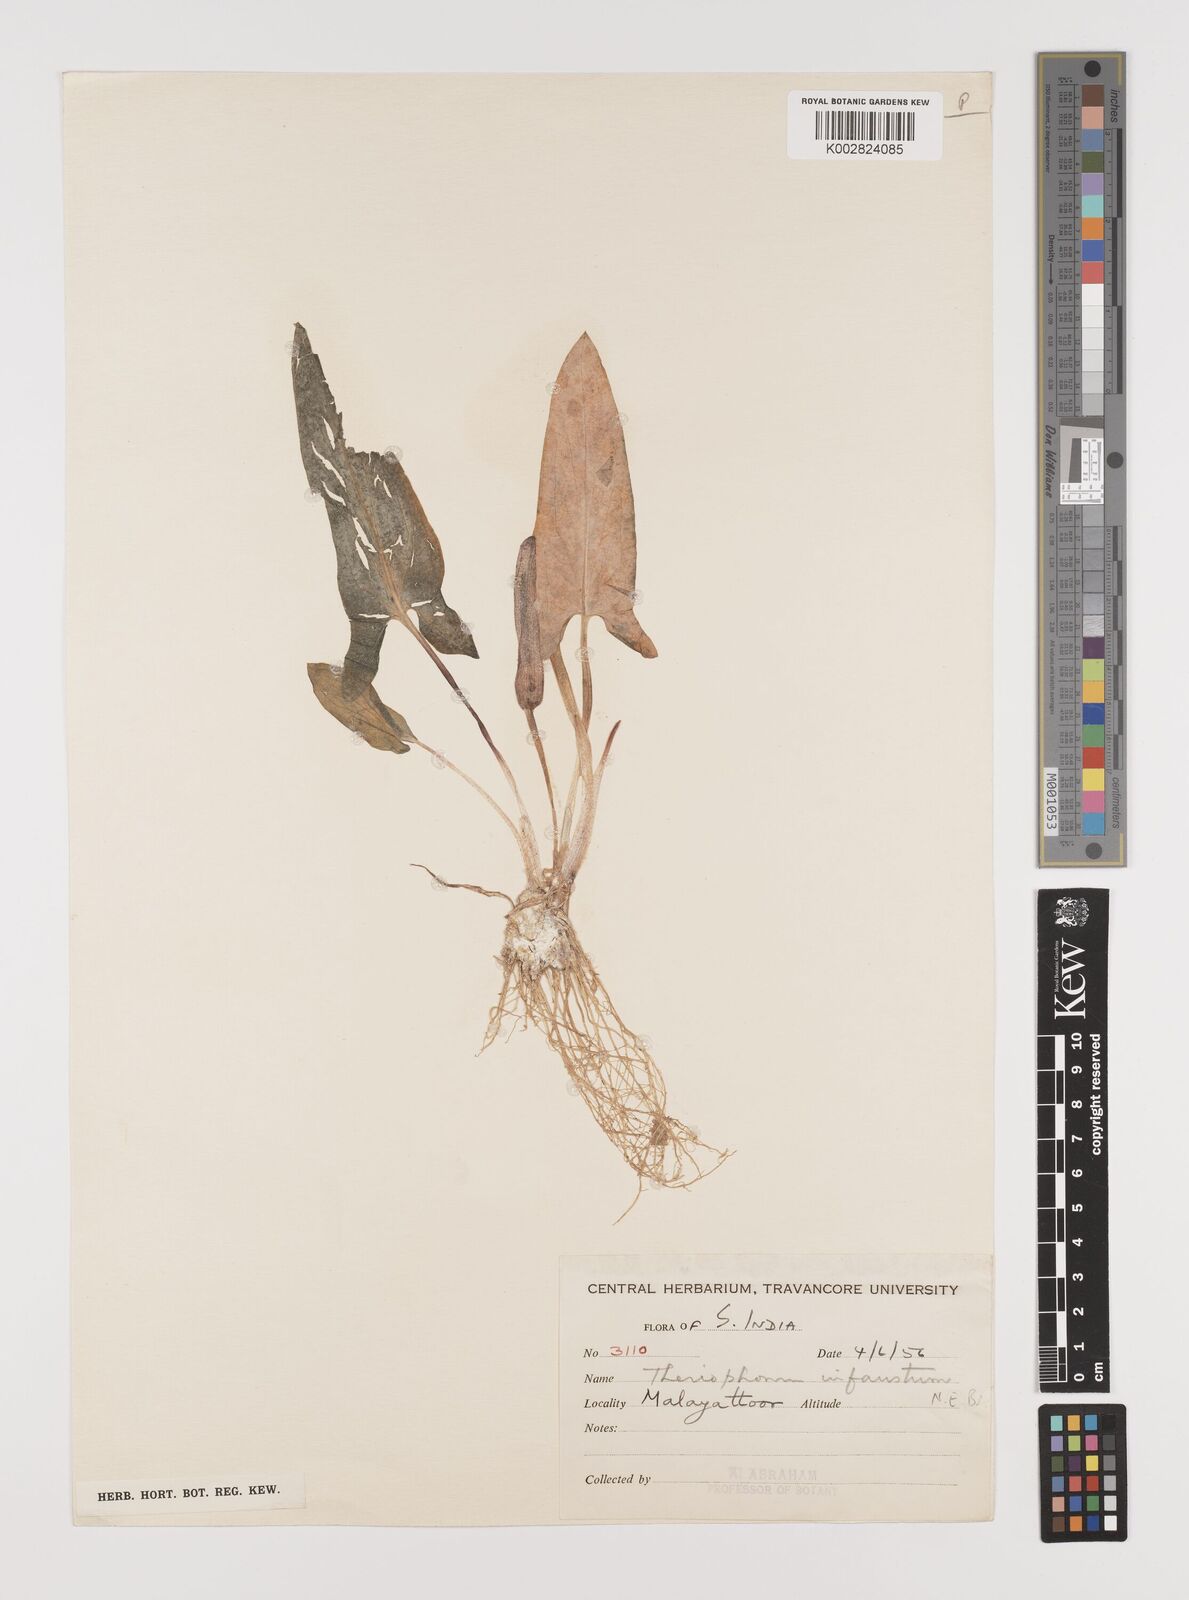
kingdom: Plantae
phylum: Tracheophyta
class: Liliopsida
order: Alismatales
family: Araceae
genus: Theriophonum
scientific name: Theriophonum infaustum
